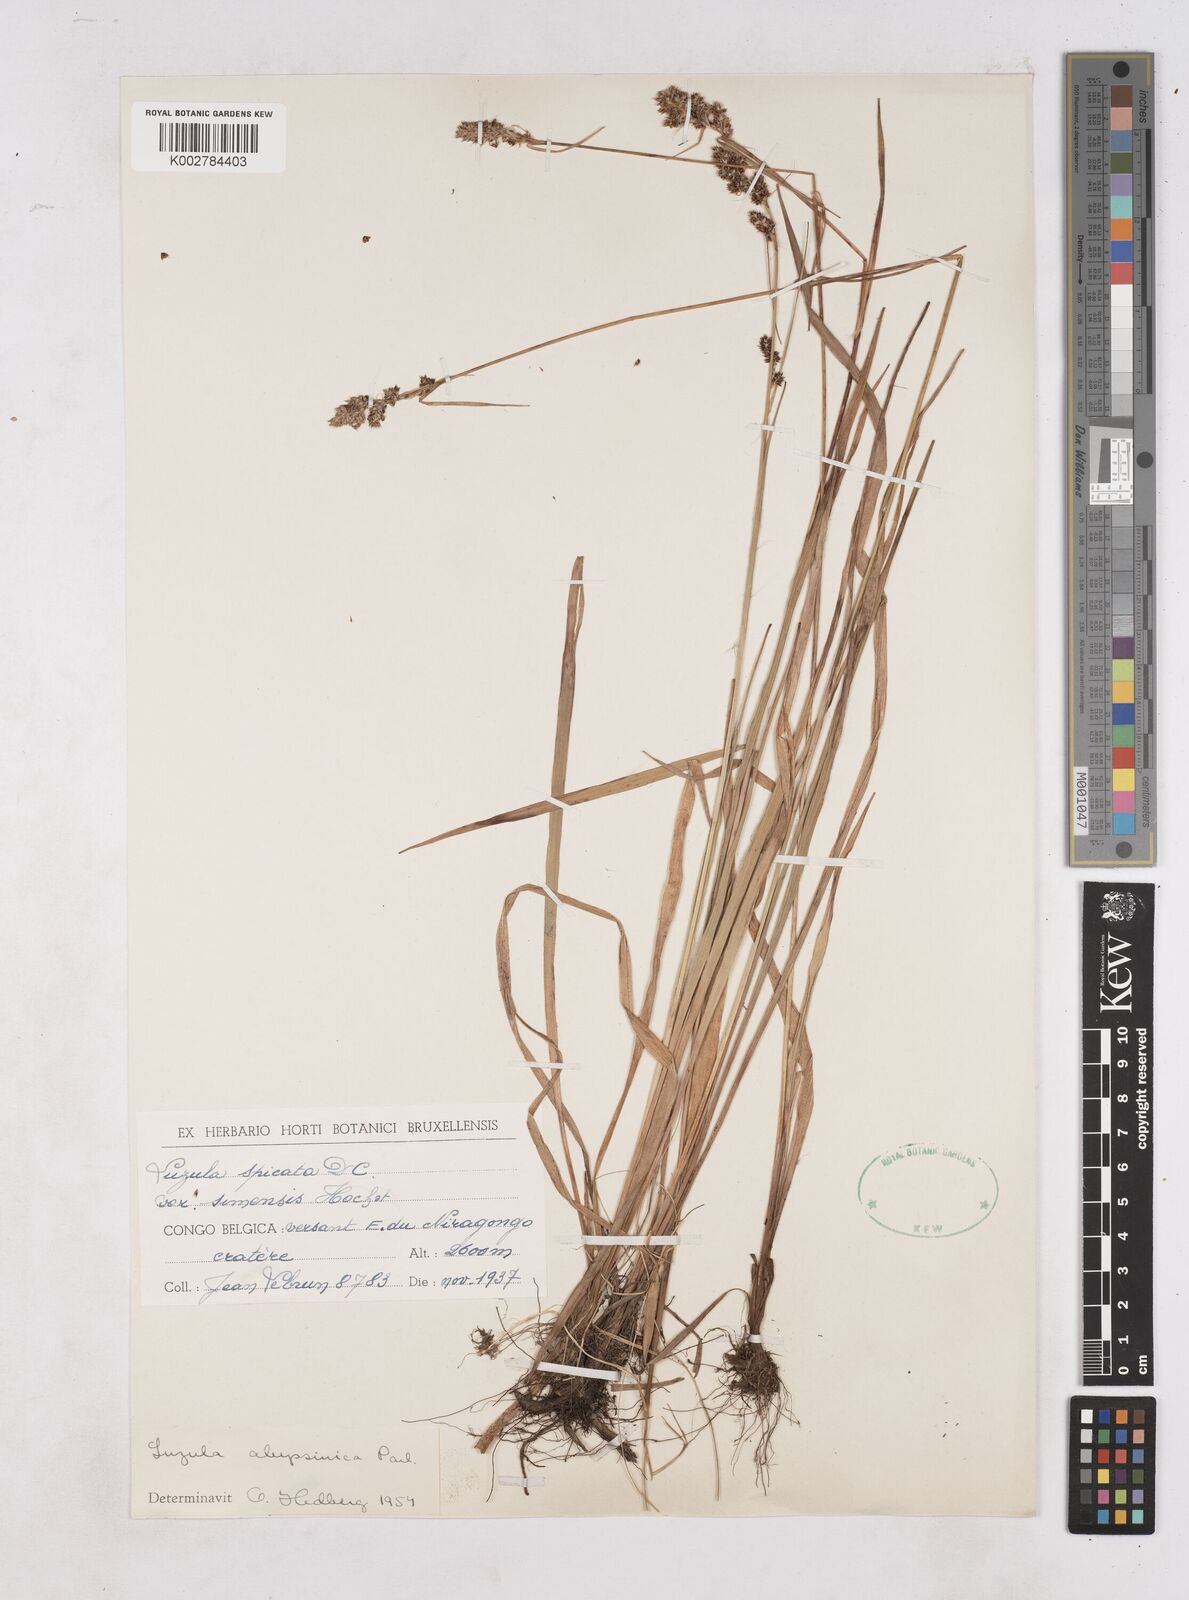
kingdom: Plantae
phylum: Tracheophyta
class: Liliopsida
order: Poales
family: Juncaceae
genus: Luzula
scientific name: Luzula abyssinica
